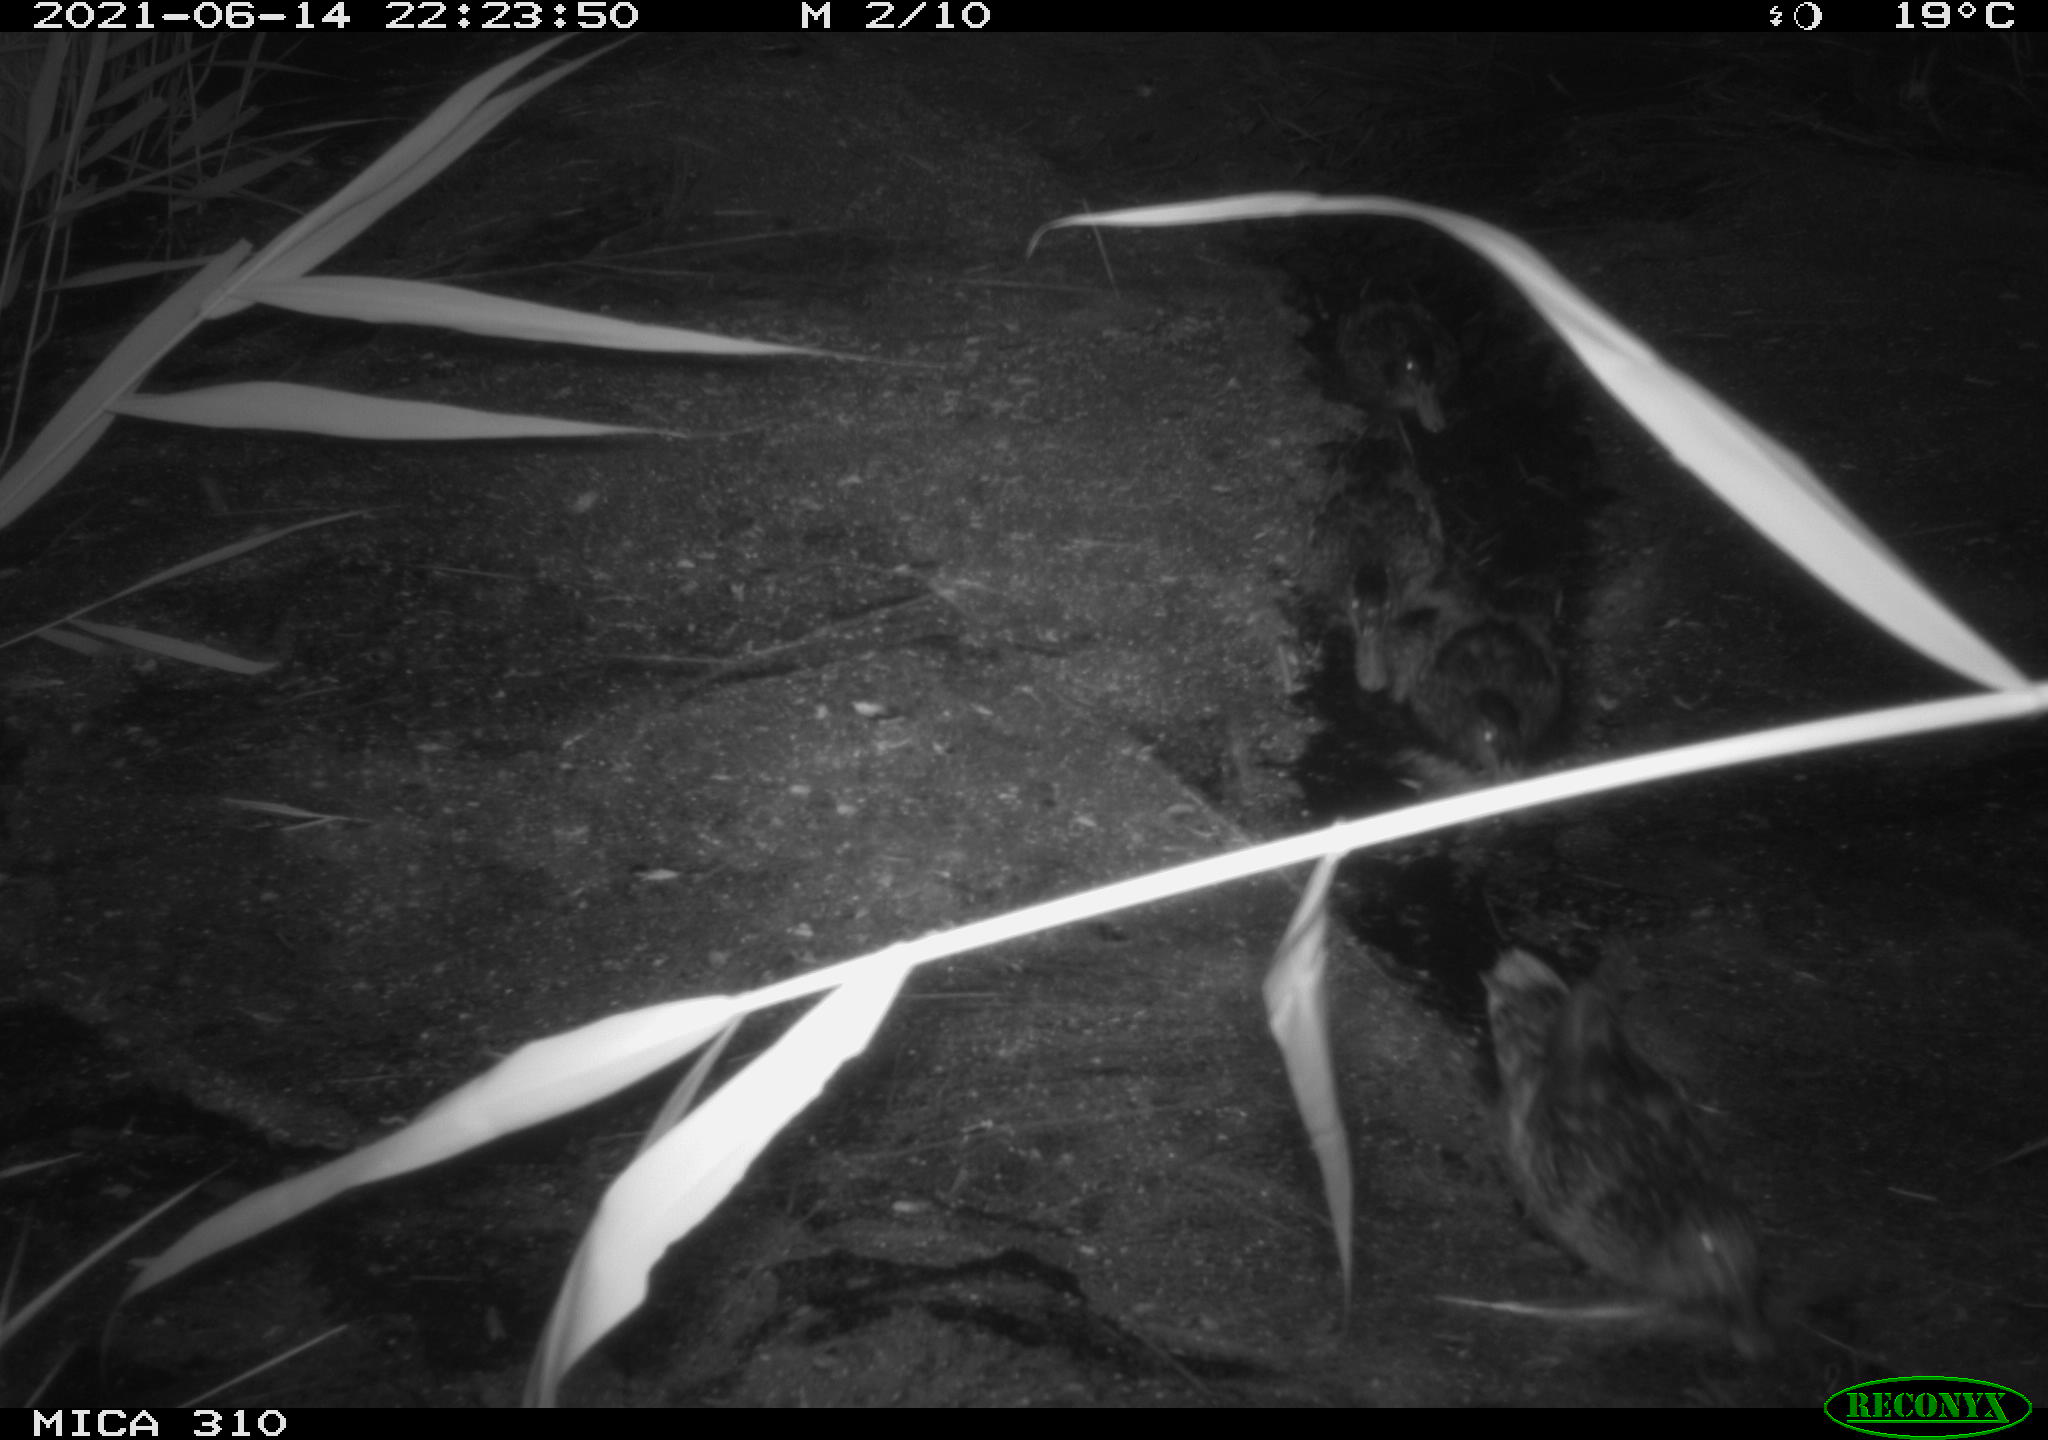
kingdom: Animalia
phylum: Chordata
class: Aves
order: Anseriformes
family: Anatidae
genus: Anas
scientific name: Anas
